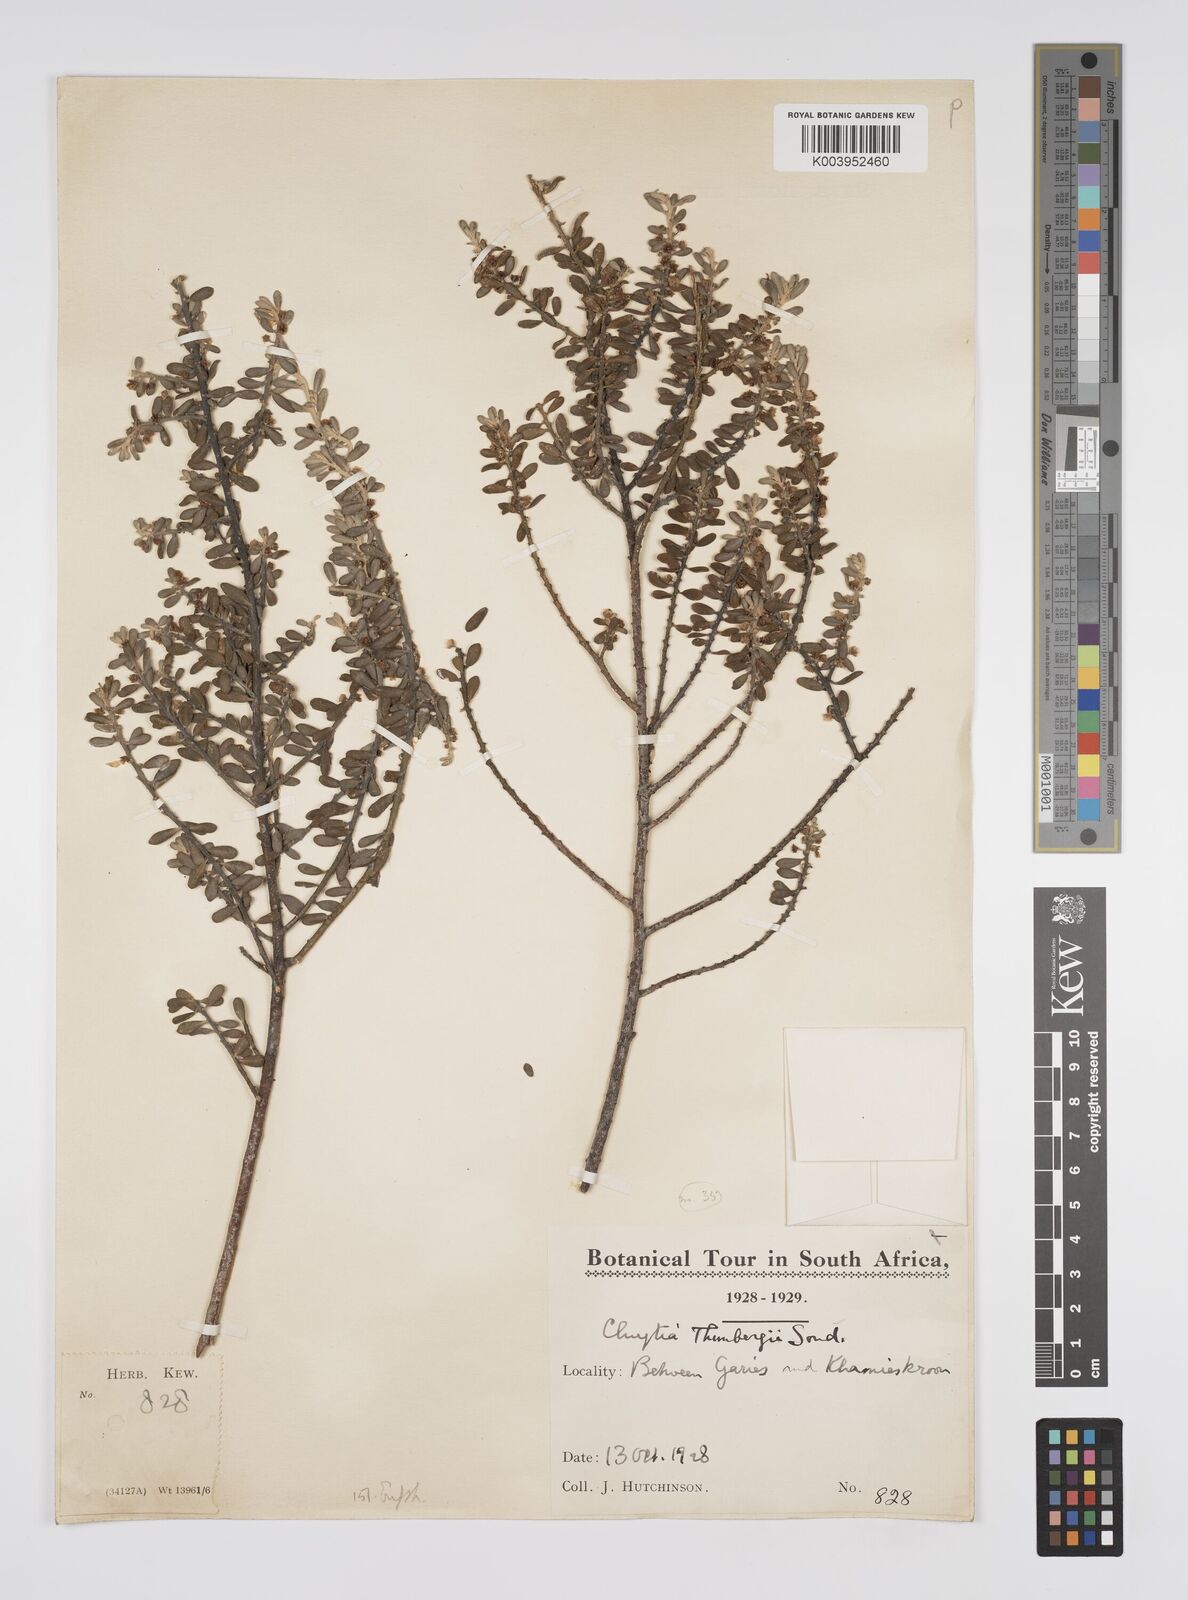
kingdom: Plantae
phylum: Tracheophyta
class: Magnoliopsida
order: Malpighiales
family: Peraceae
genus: Clutia
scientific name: Clutia thunbergii
